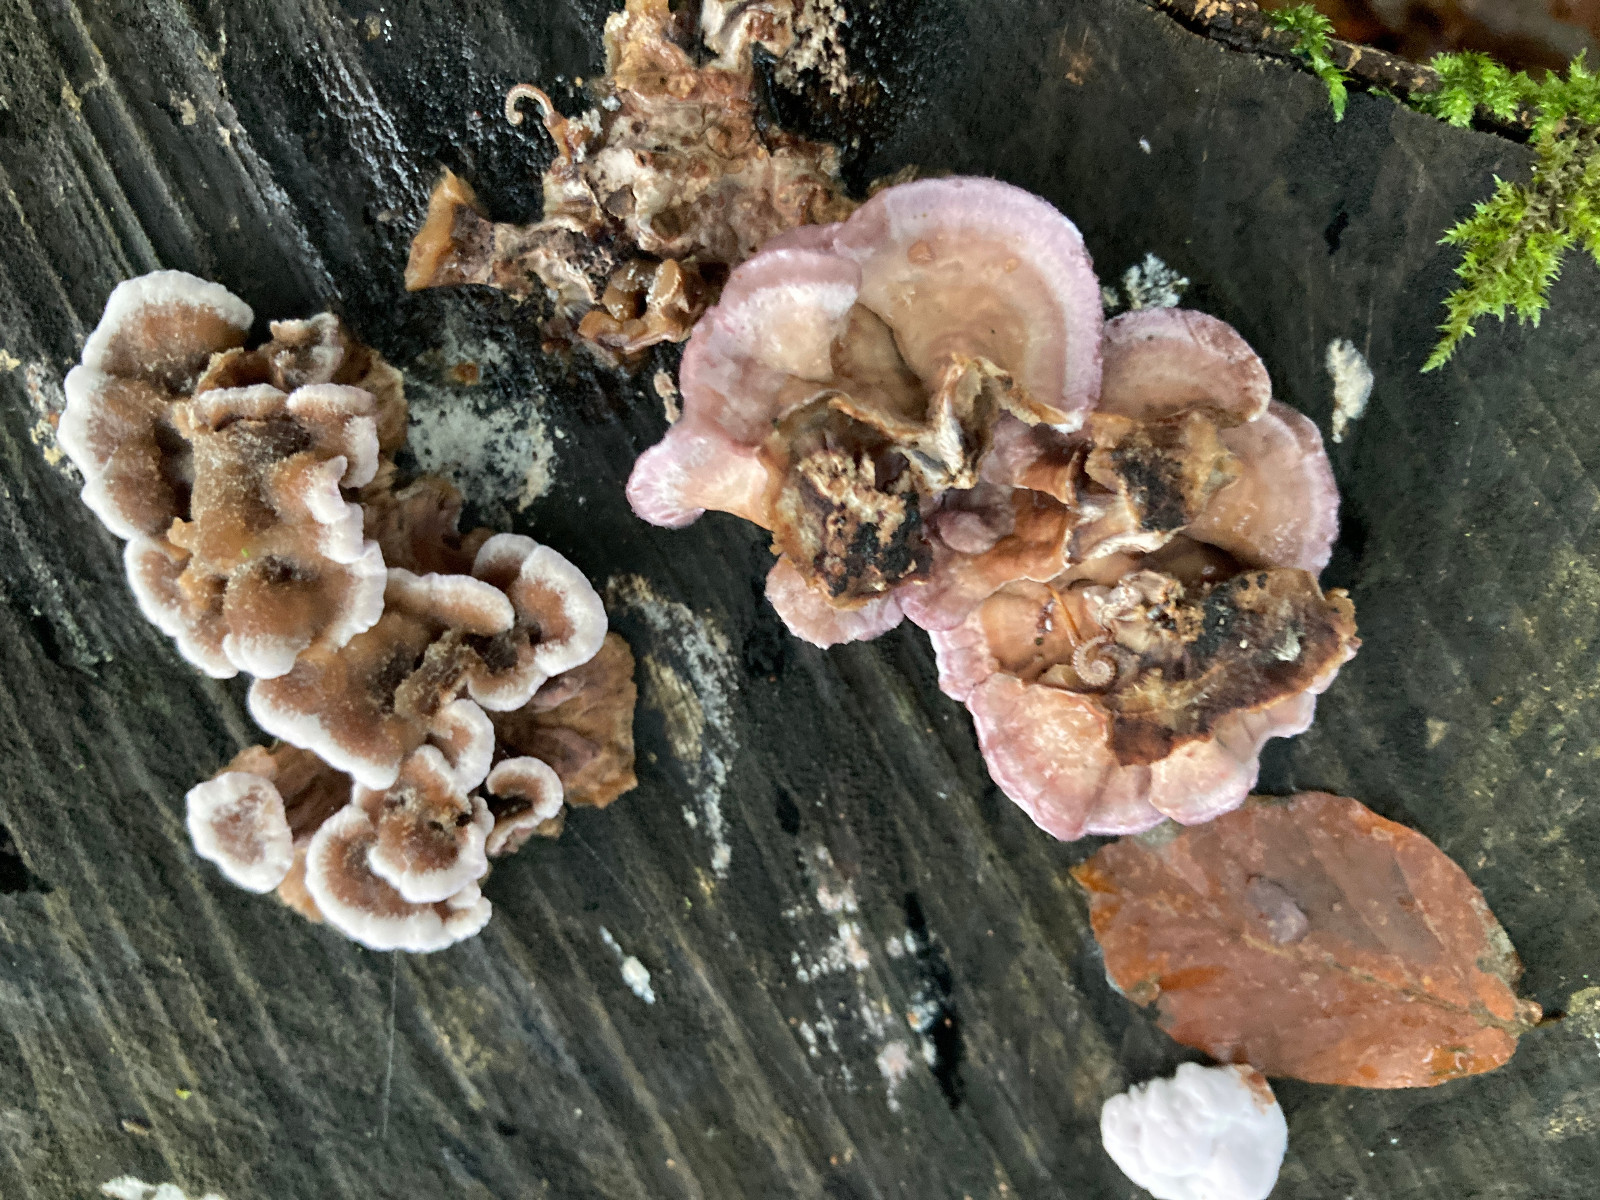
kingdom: Fungi
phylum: Basidiomycota
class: Agaricomycetes
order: Agaricales
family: Cyphellaceae
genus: Chondrostereum
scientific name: Chondrostereum purpureum
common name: purpurlædersvamp
